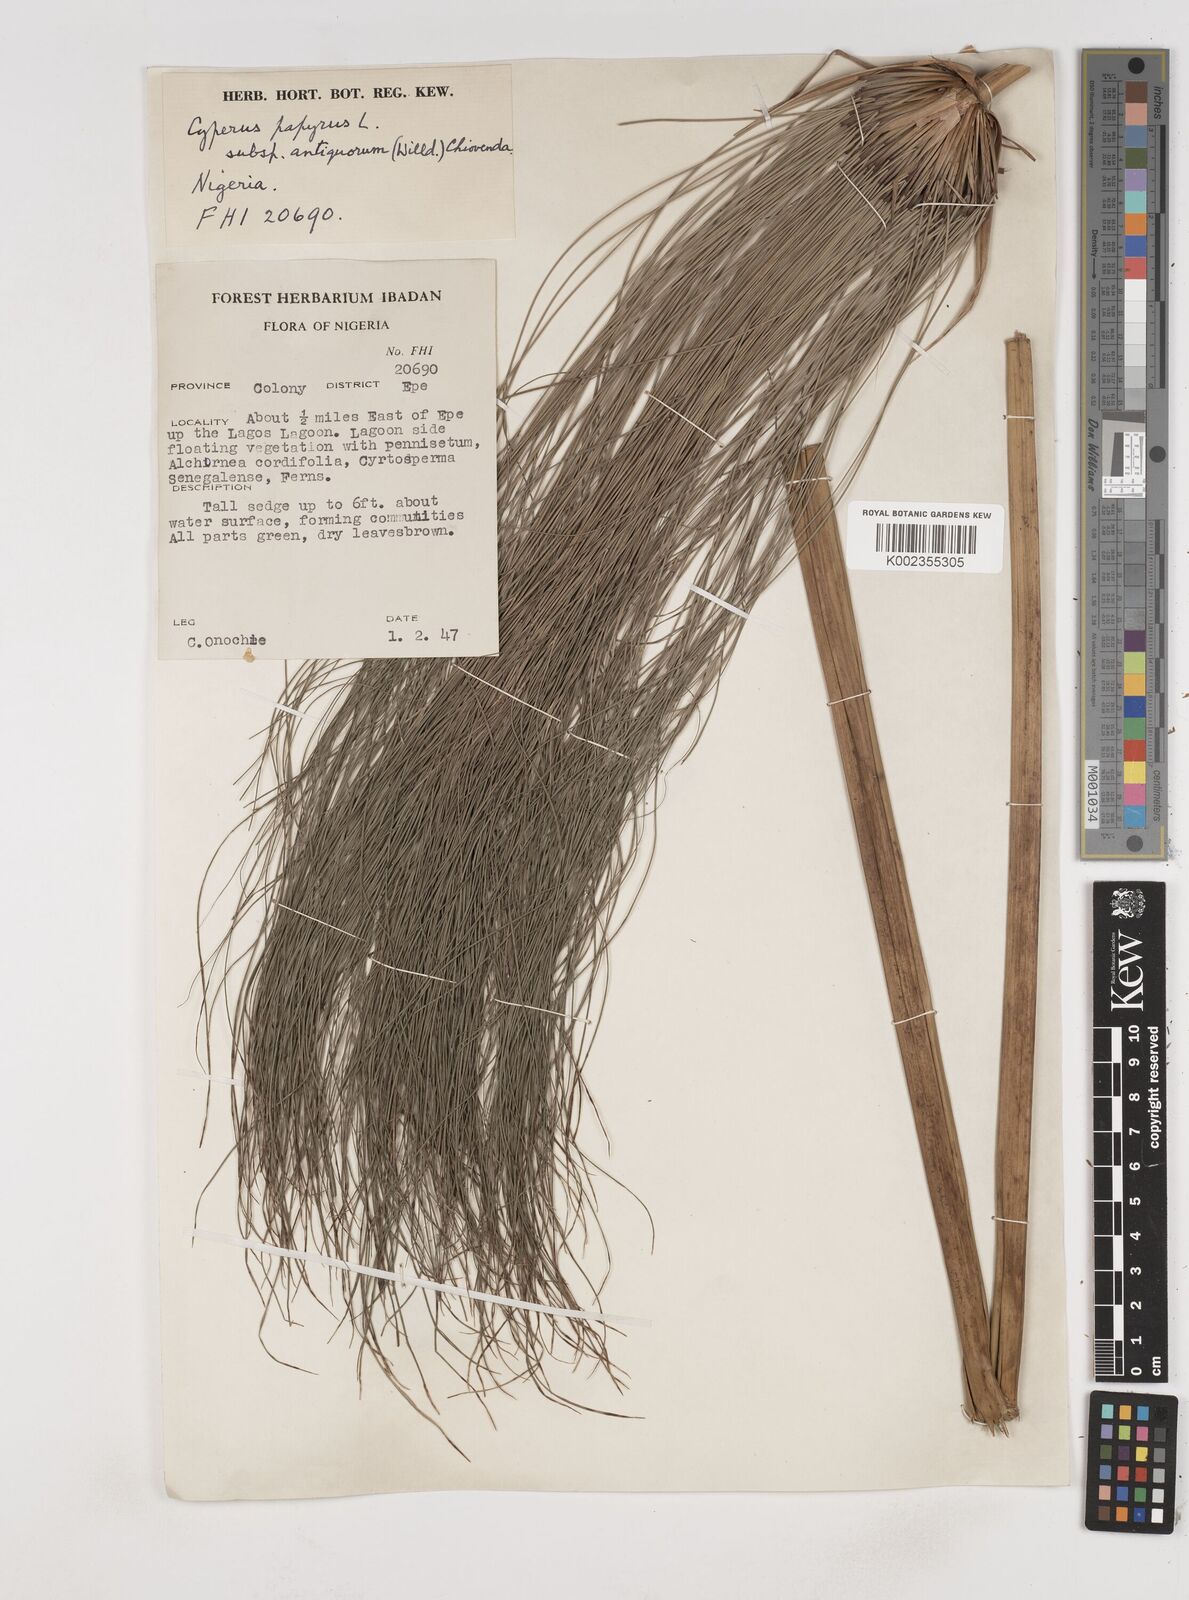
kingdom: Plantae
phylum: Tracheophyta
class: Liliopsida
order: Poales
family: Cyperaceae
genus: Cyperus
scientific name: Cyperus papyrus
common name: Papyrus
